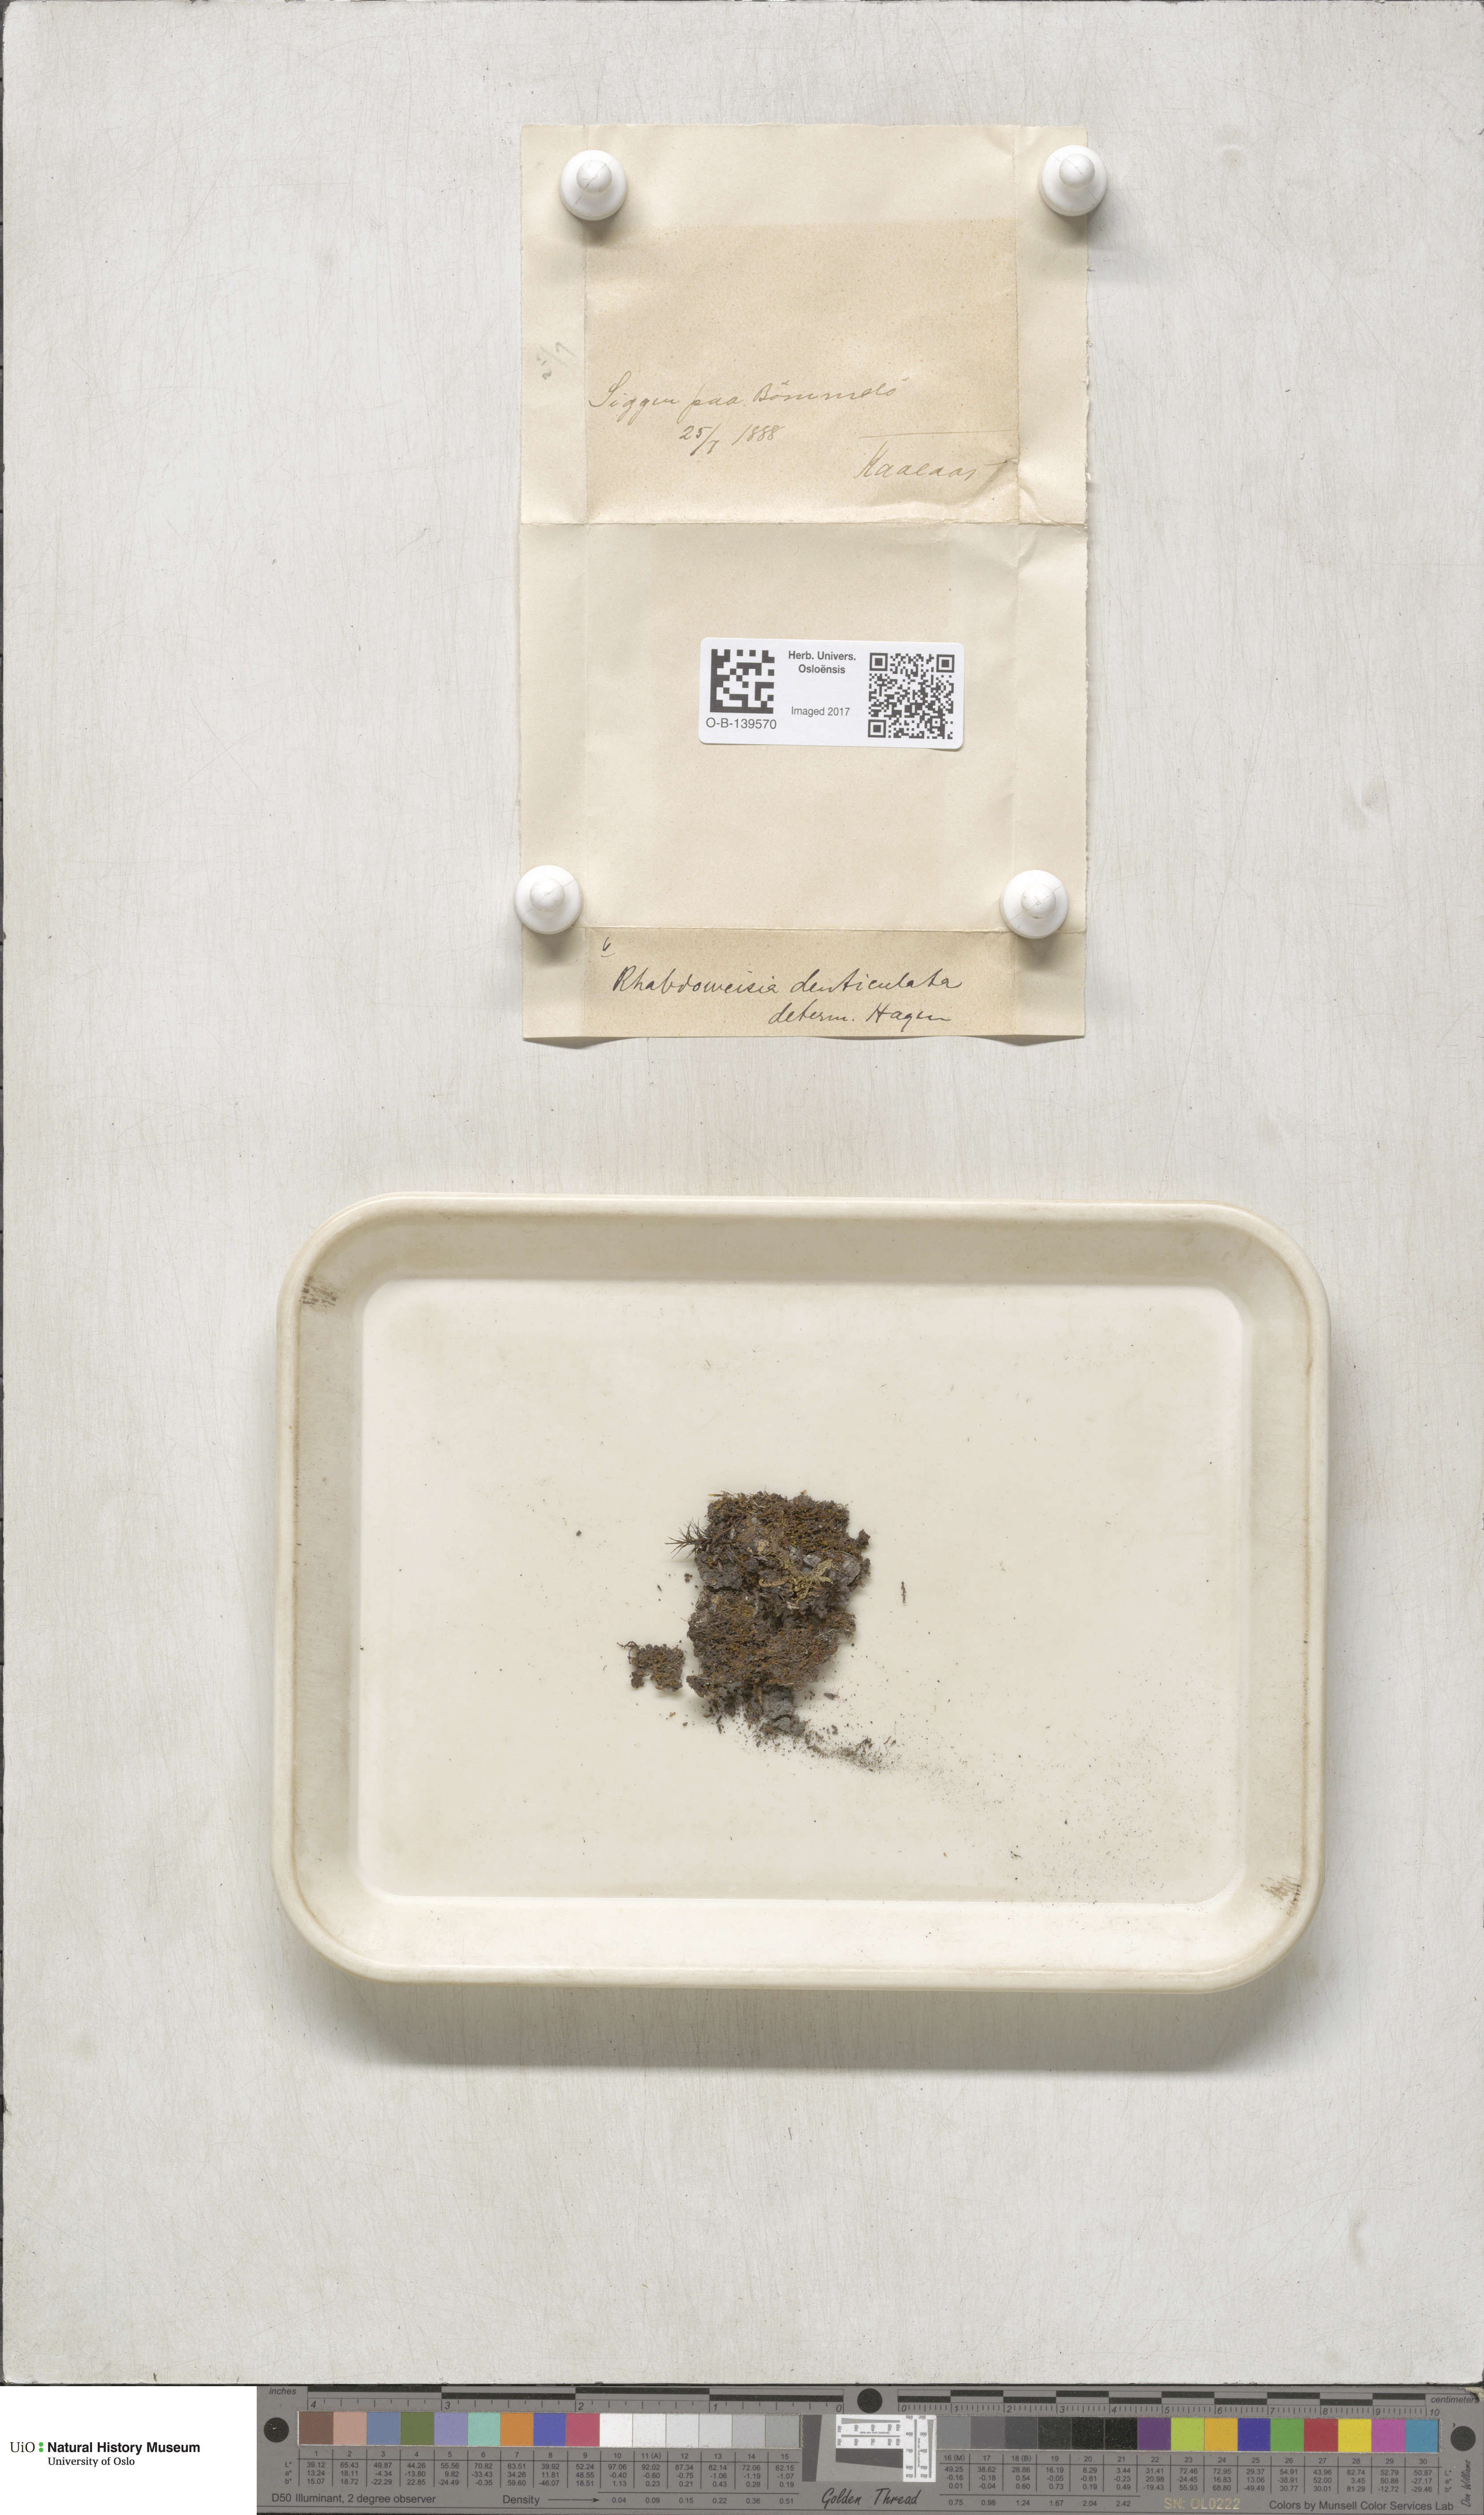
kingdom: Plantae
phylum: Bryophyta
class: Bryopsida
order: Dicranales
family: Rhabdoweisiaceae
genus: Rhabdoweisia
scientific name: Rhabdoweisia crispata
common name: Fine-toothed streak moss
